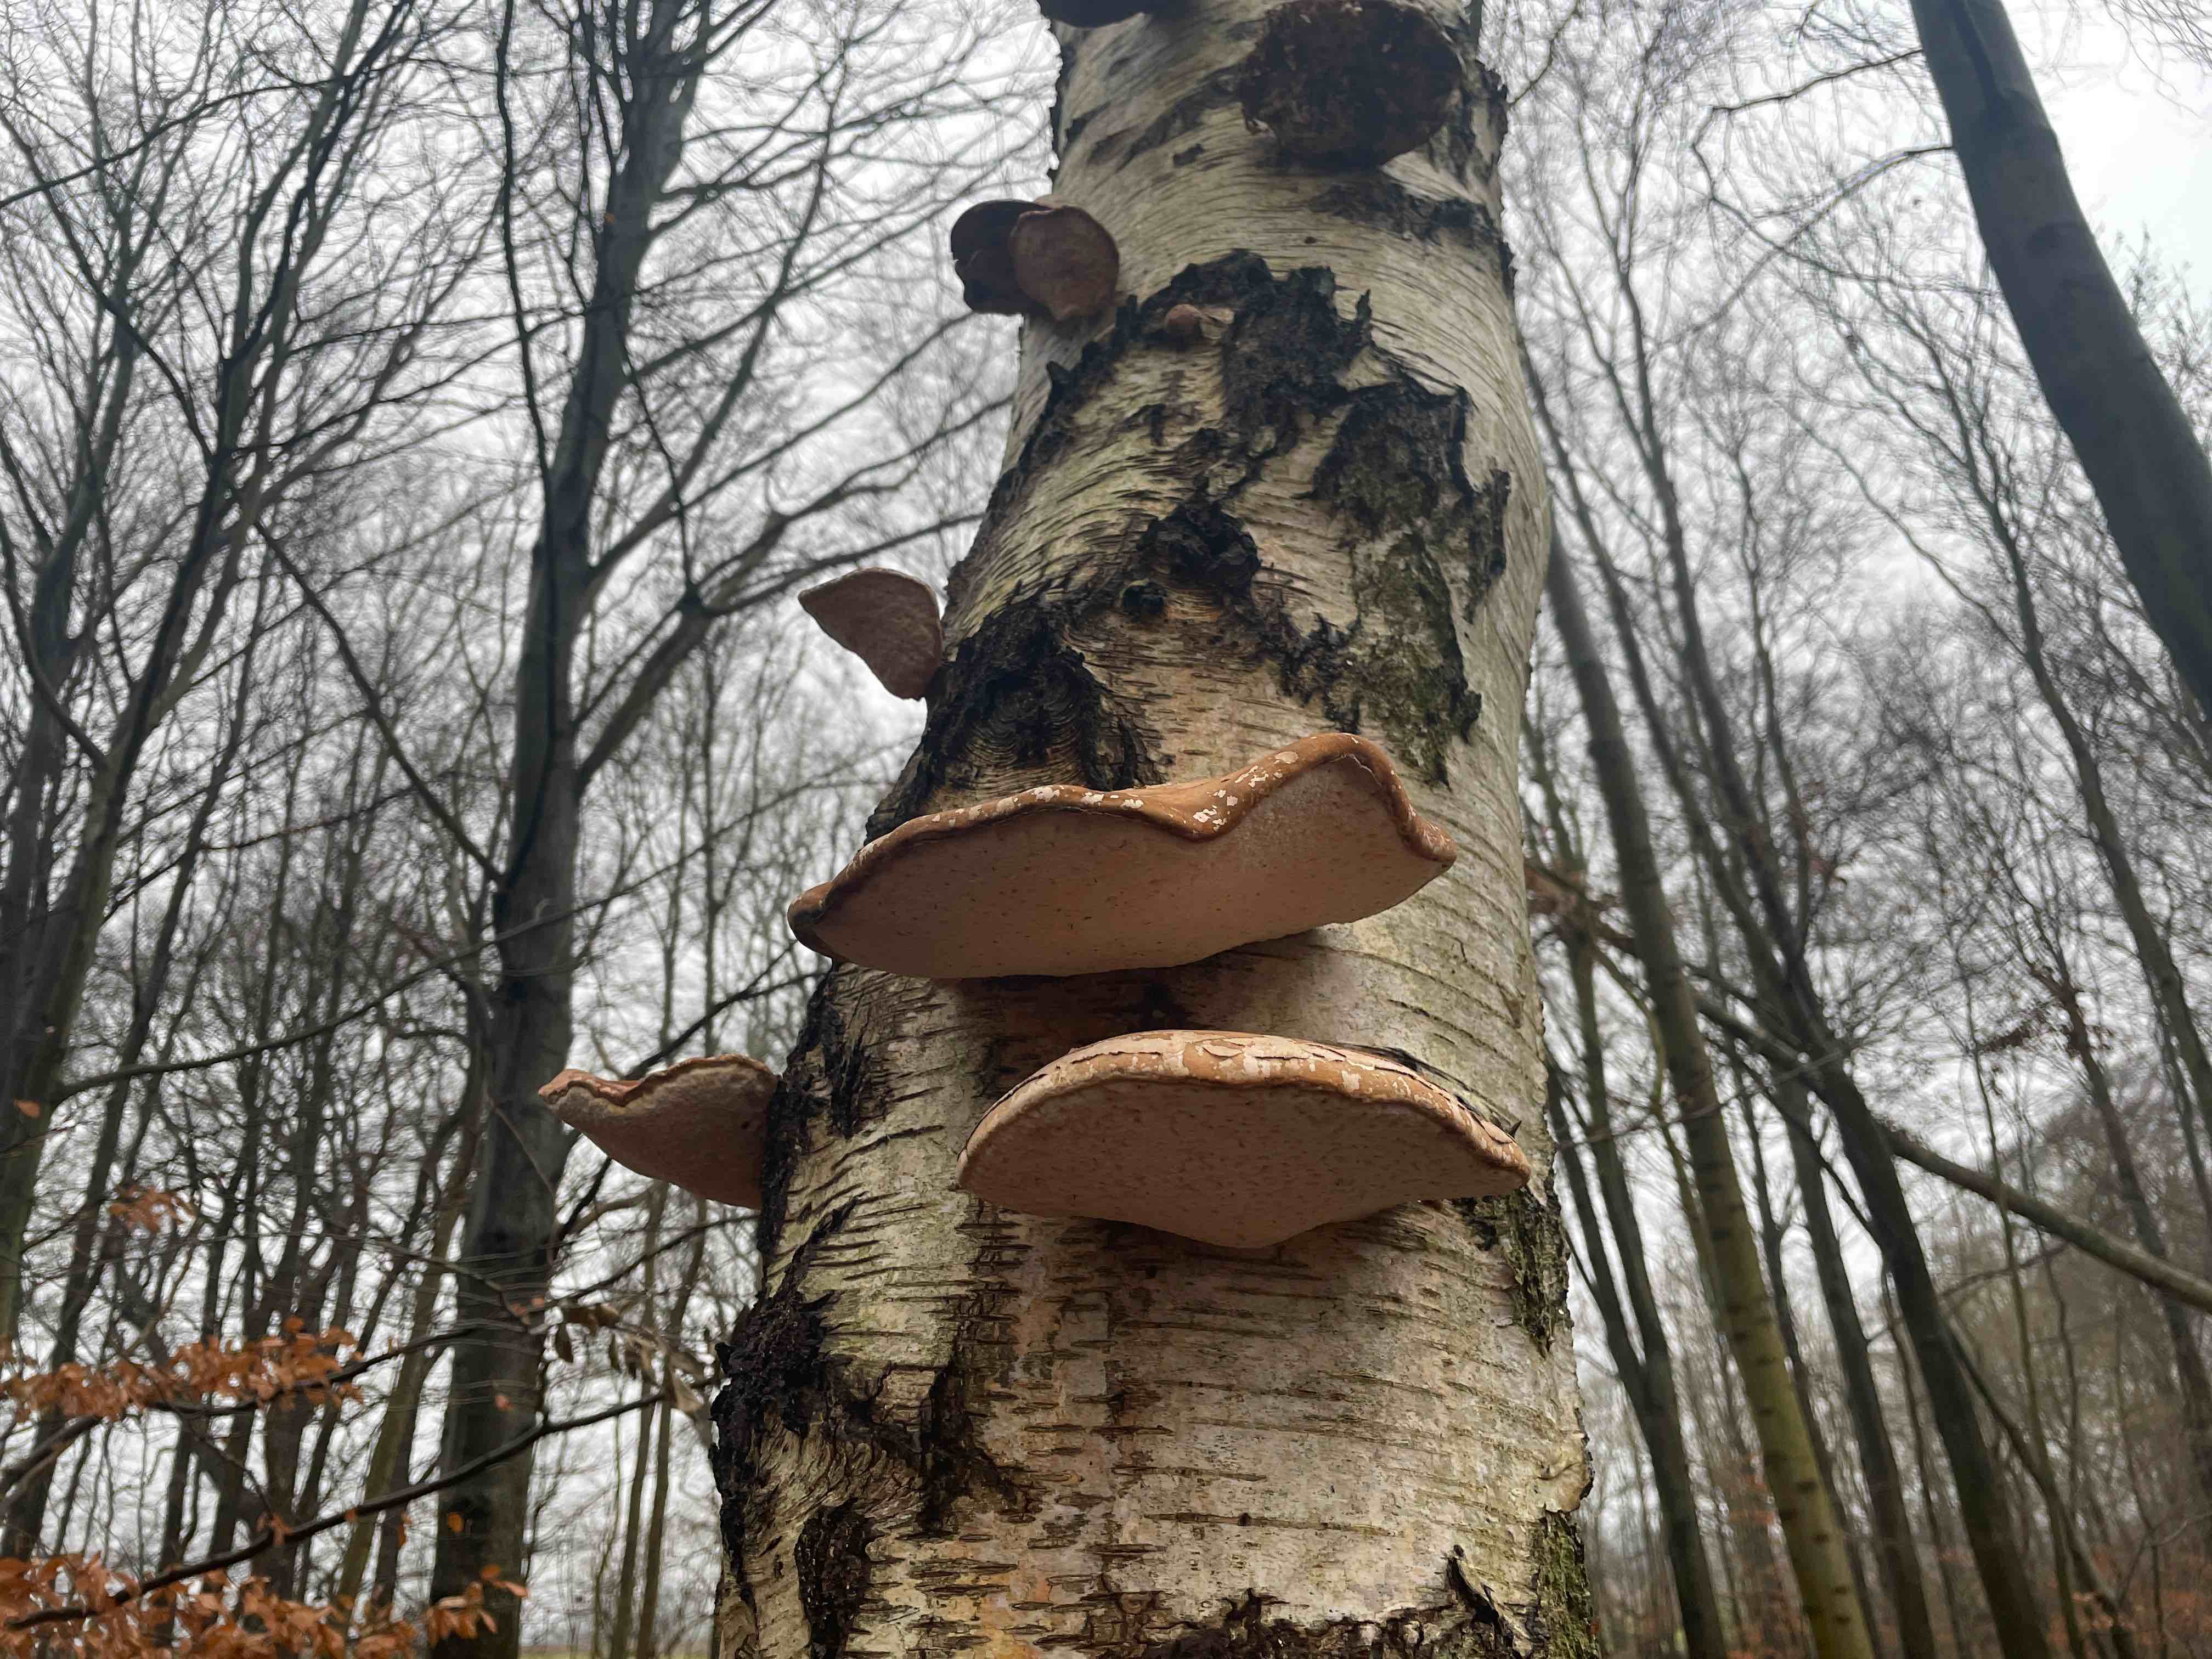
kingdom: Fungi
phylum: Basidiomycota
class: Agaricomycetes
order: Polyporales
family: Fomitopsidaceae
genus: Fomitopsis
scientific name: Fomitopsis betulina
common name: birkeporesvamp
